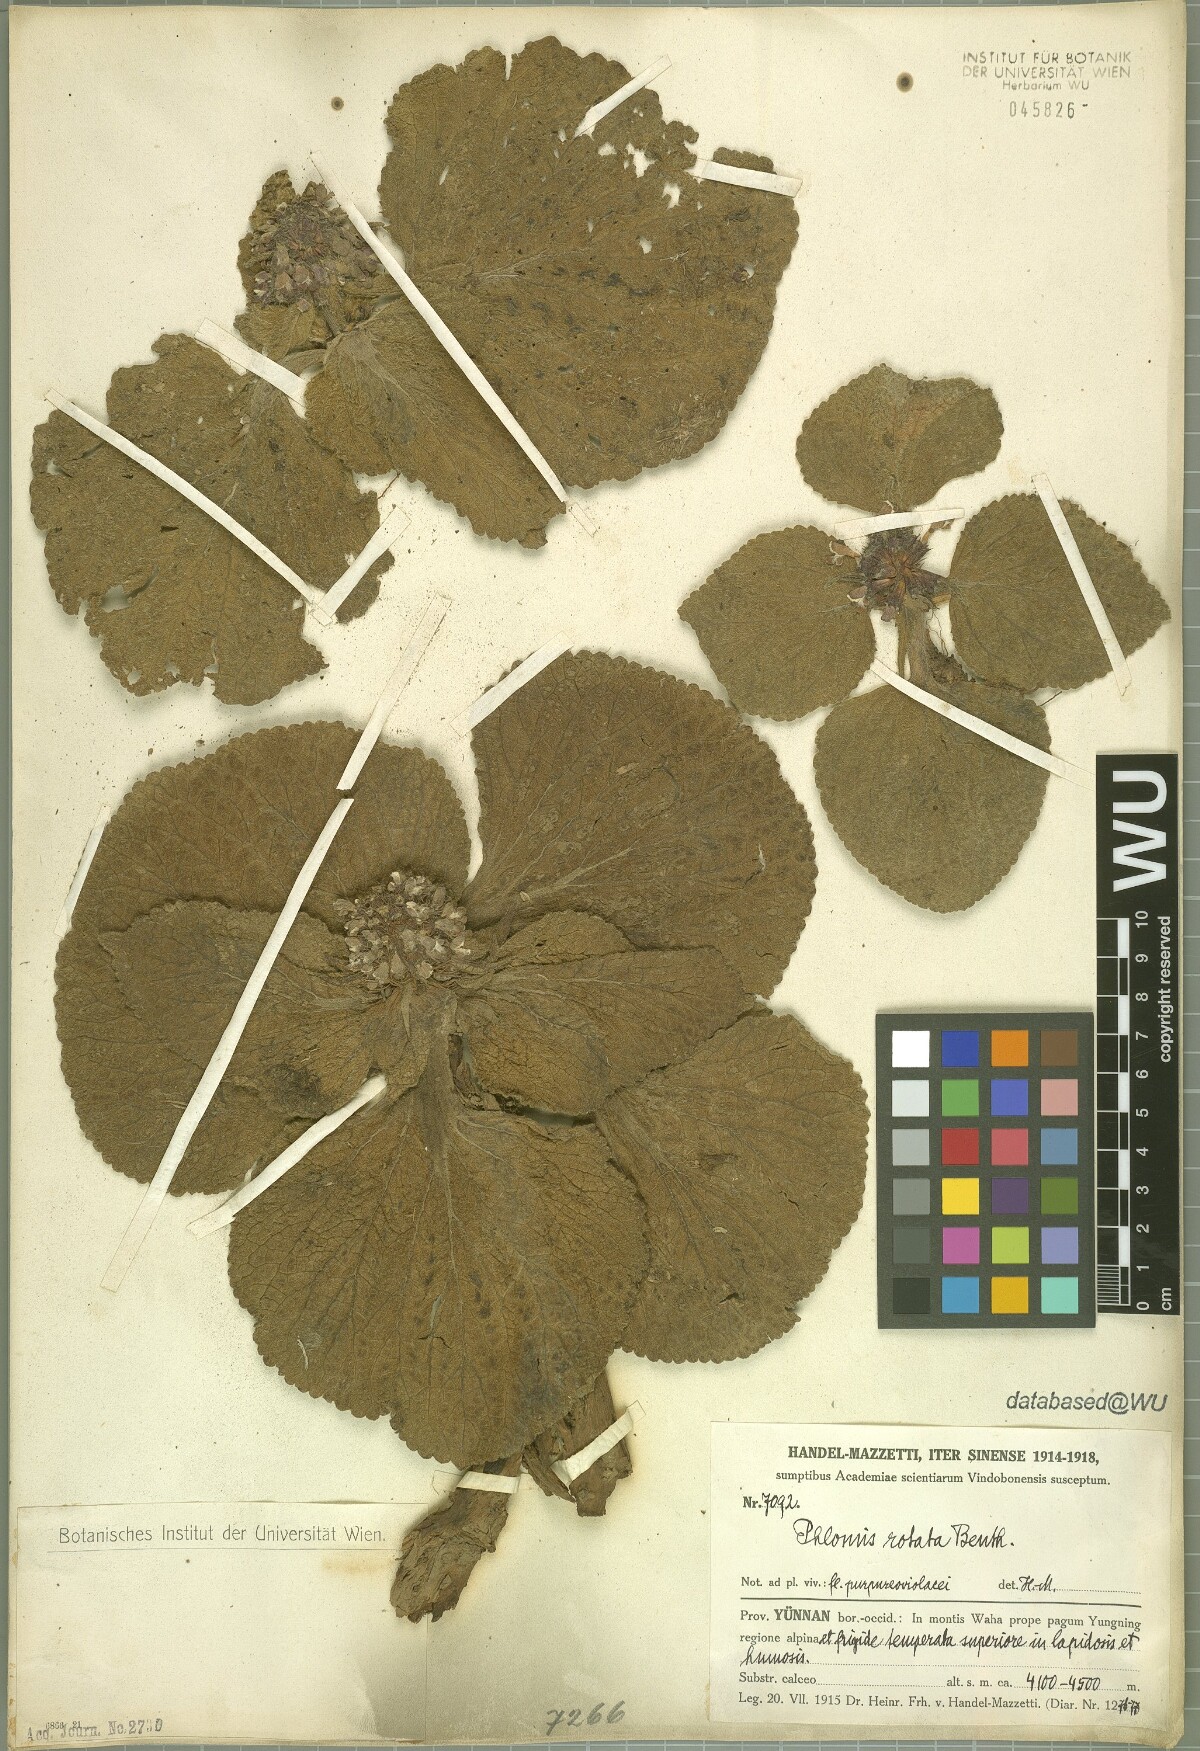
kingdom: Plantae
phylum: Tracheophyta
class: Magnoliopsida
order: Lamiales
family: Lamiaceae
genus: Phlomoides
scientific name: Phlomoides rotata
